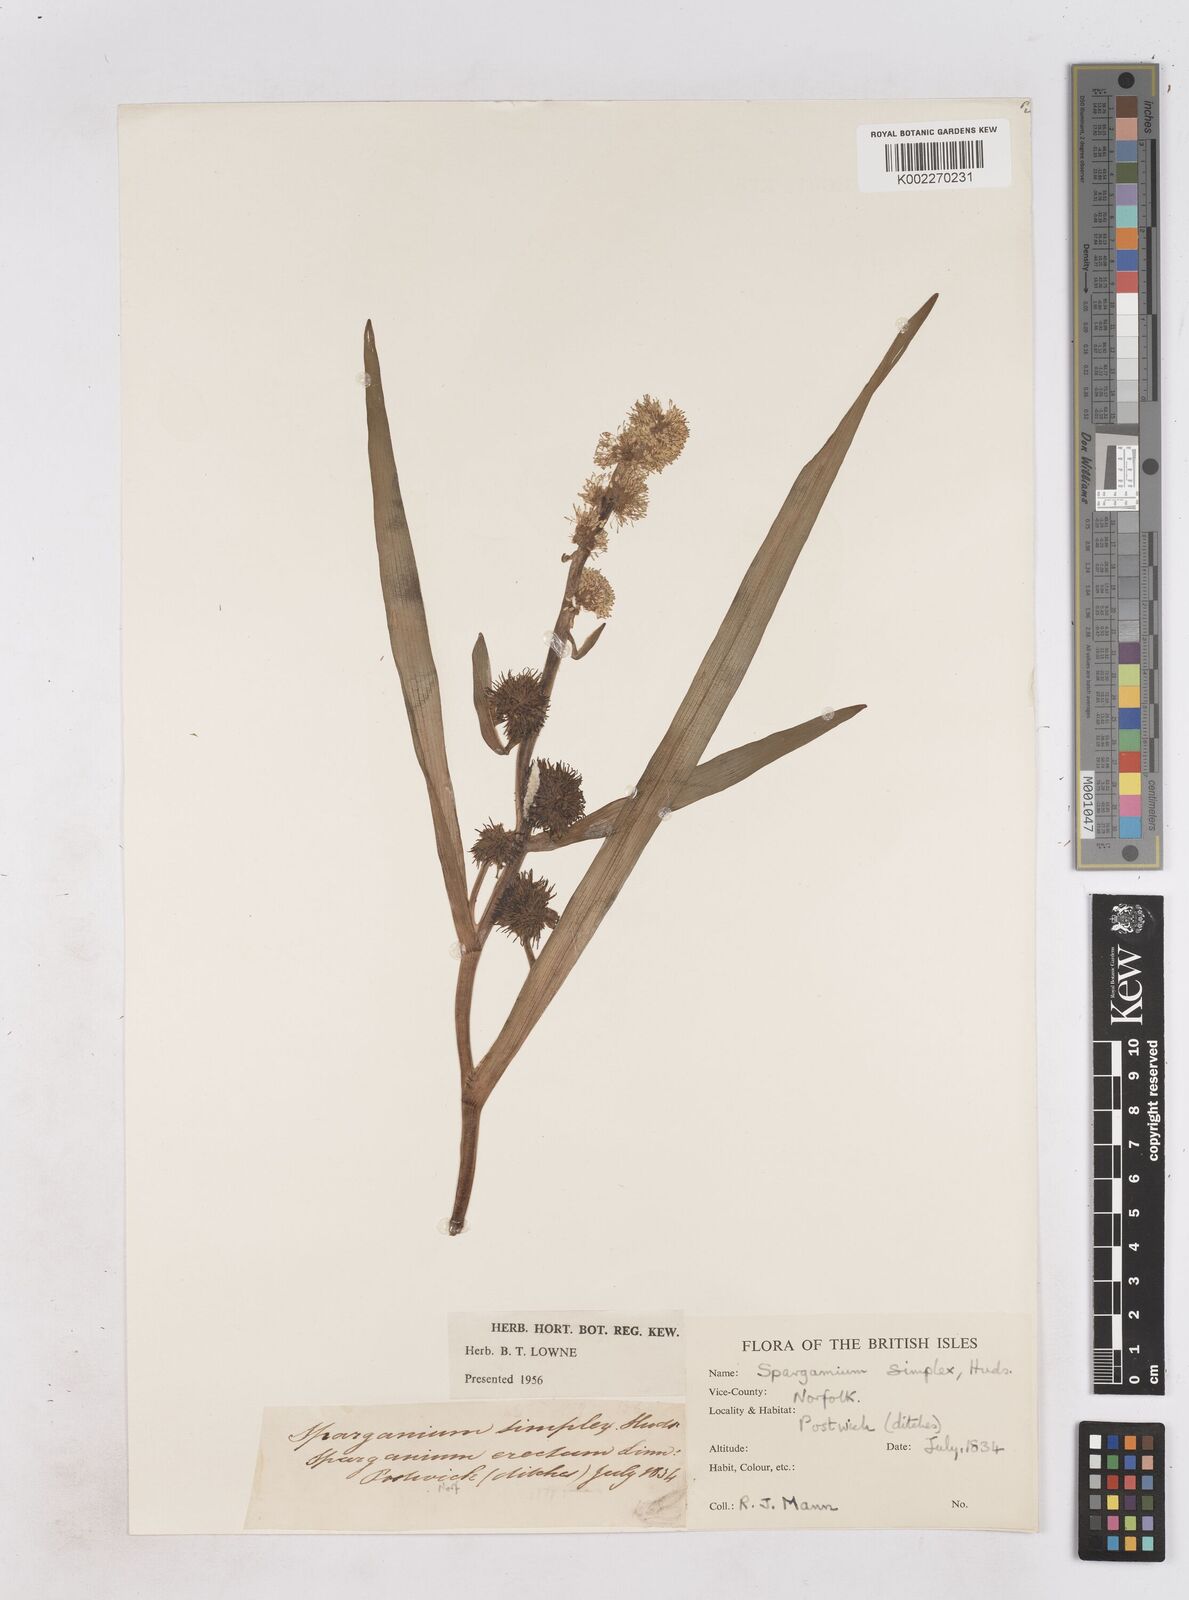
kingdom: Plantae
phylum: Tracheophyta
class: Liliopsida
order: Poales
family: Typhaceae
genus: Sparganium
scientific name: Sparganium emersum
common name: Unbranched bur-reed
